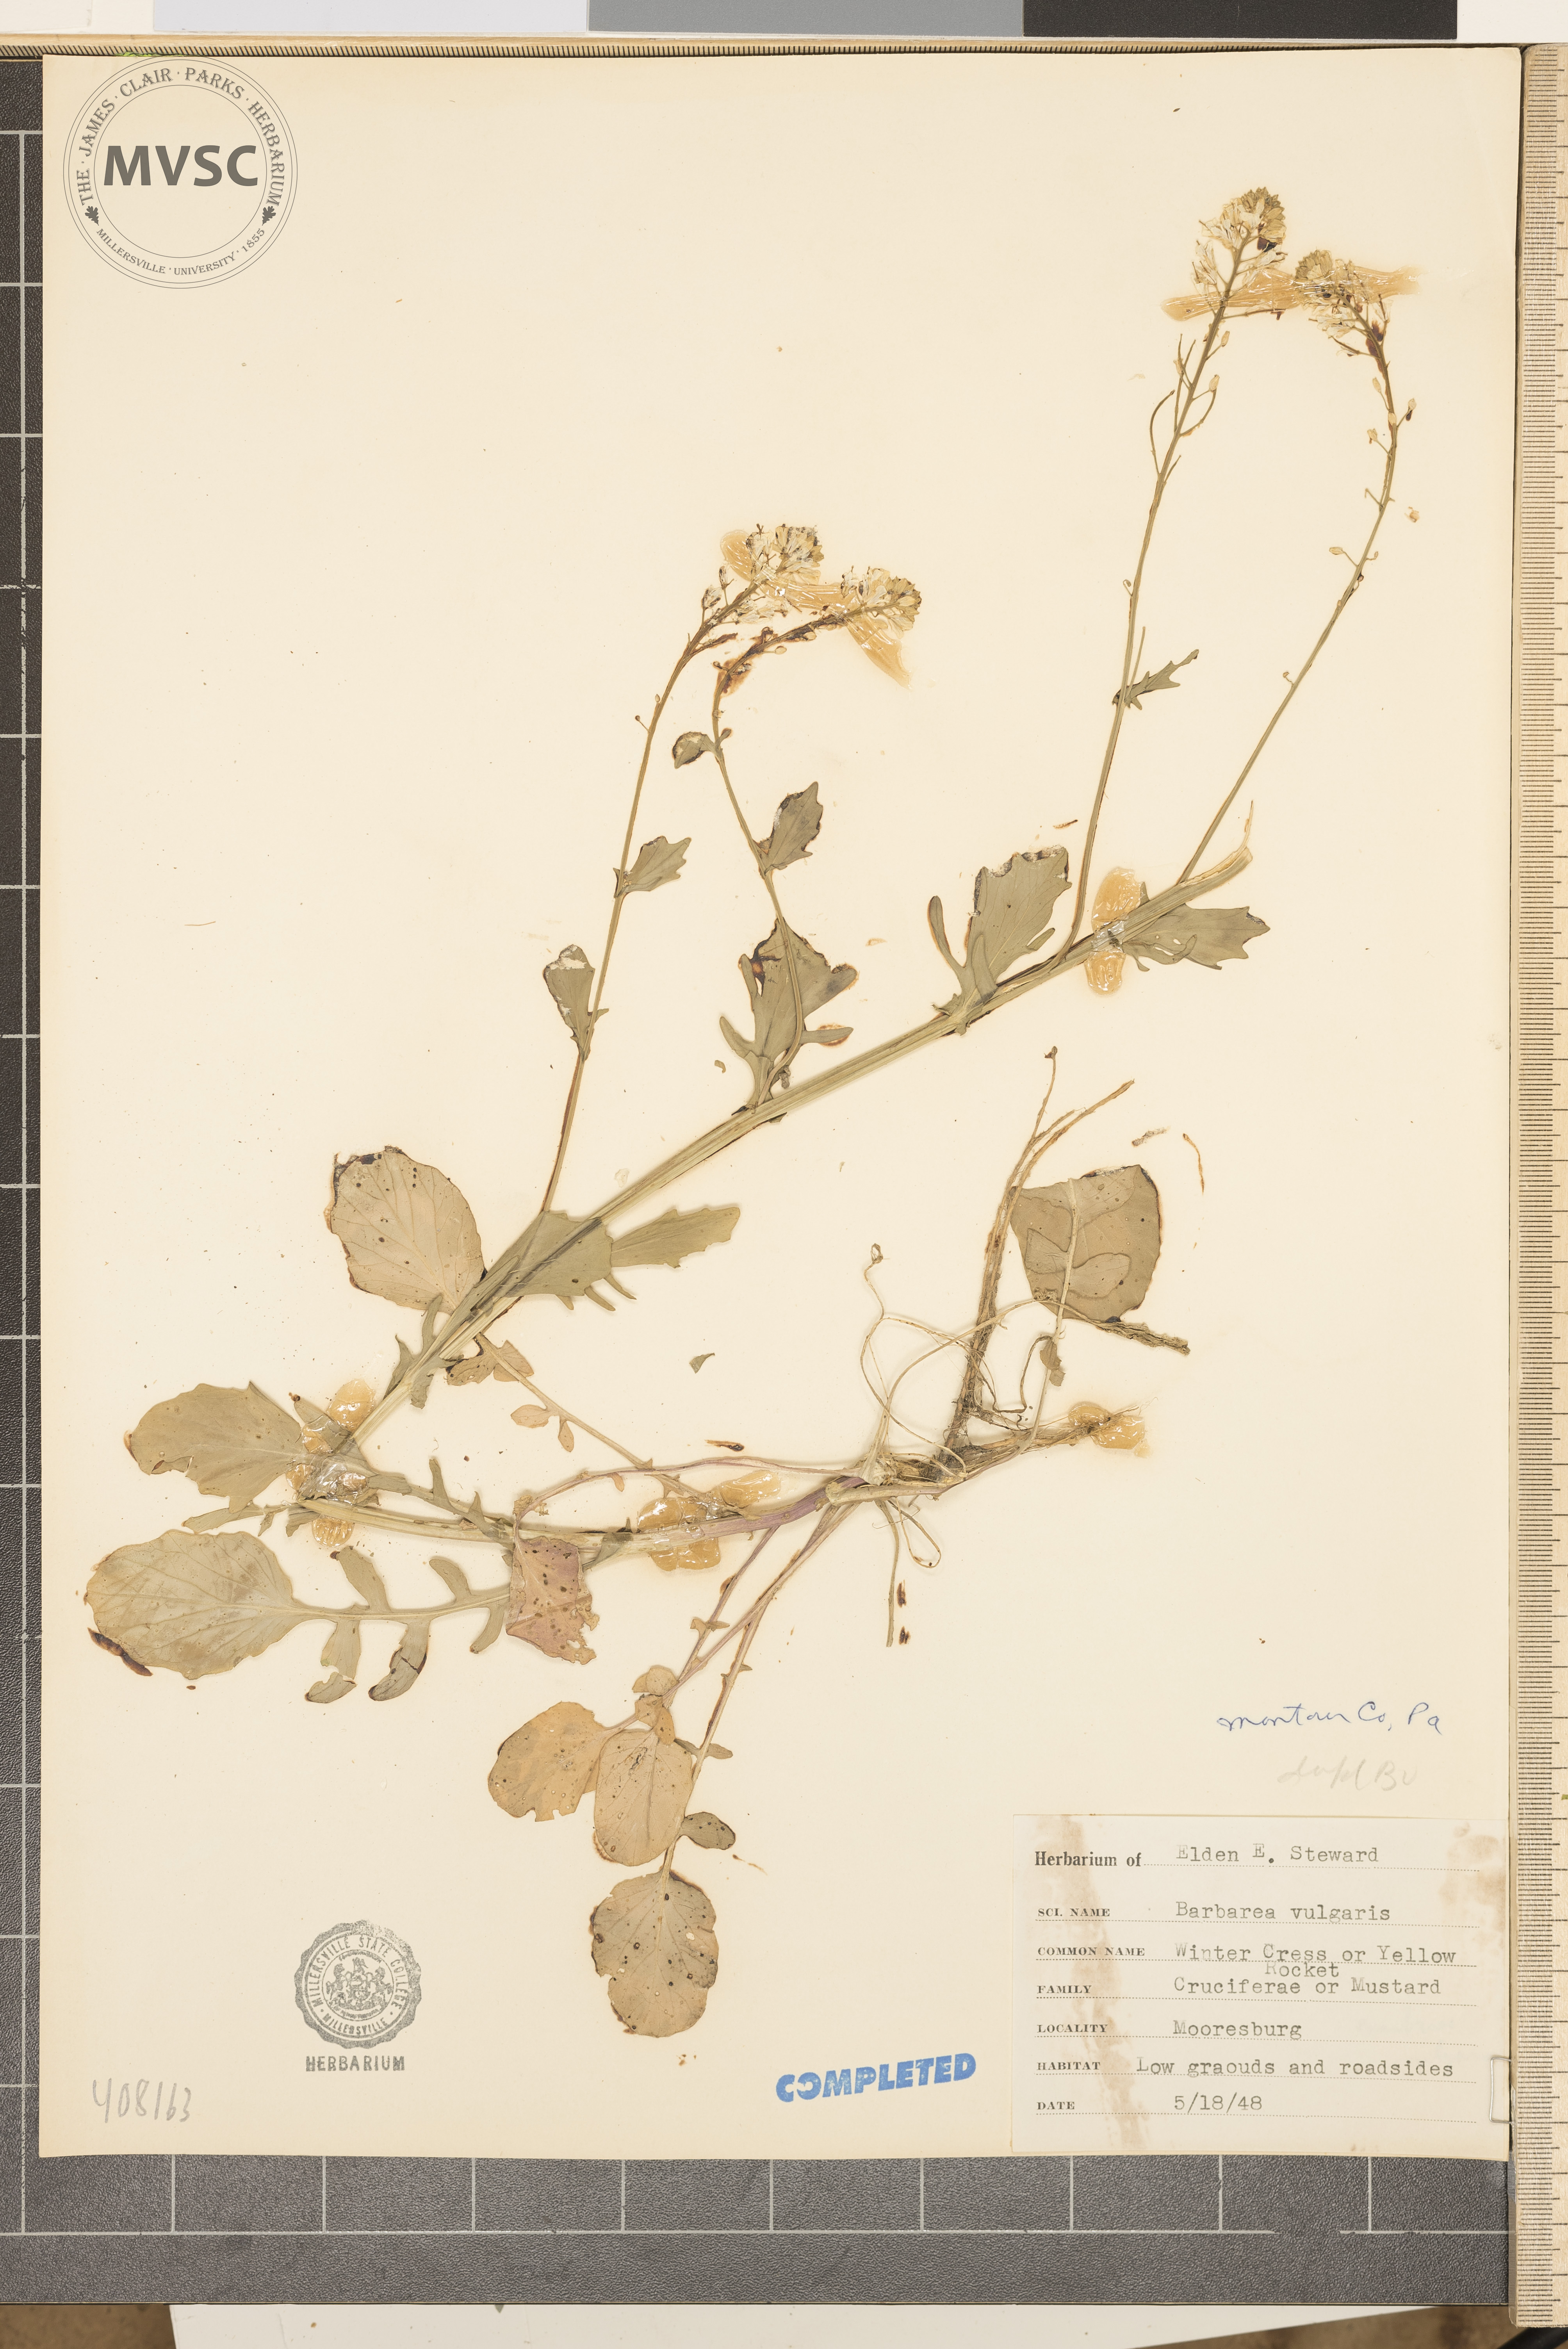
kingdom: Plantae
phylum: Tracheophyta
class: Magnoliopsida
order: Brassicales
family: Brassicaceae
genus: Barbarea
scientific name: Barbarea vulgaris
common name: Cressy-greens
